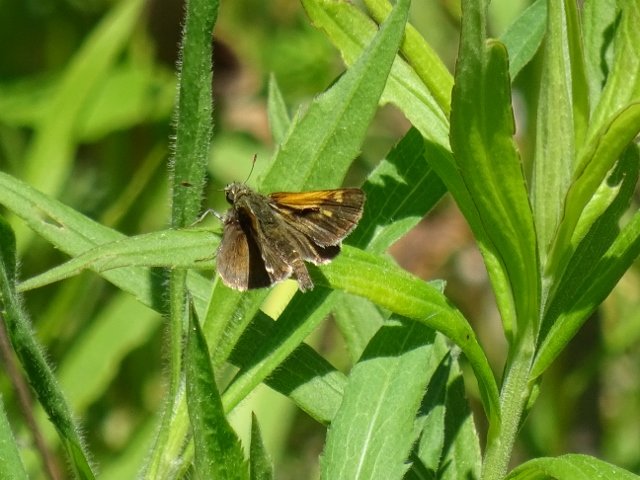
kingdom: Animalia
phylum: Arthropoda
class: Insecta
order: Lepidoptera
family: Hesperiidae
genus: Polites
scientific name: Polites themistocles
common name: Tawny-edged Skipper
